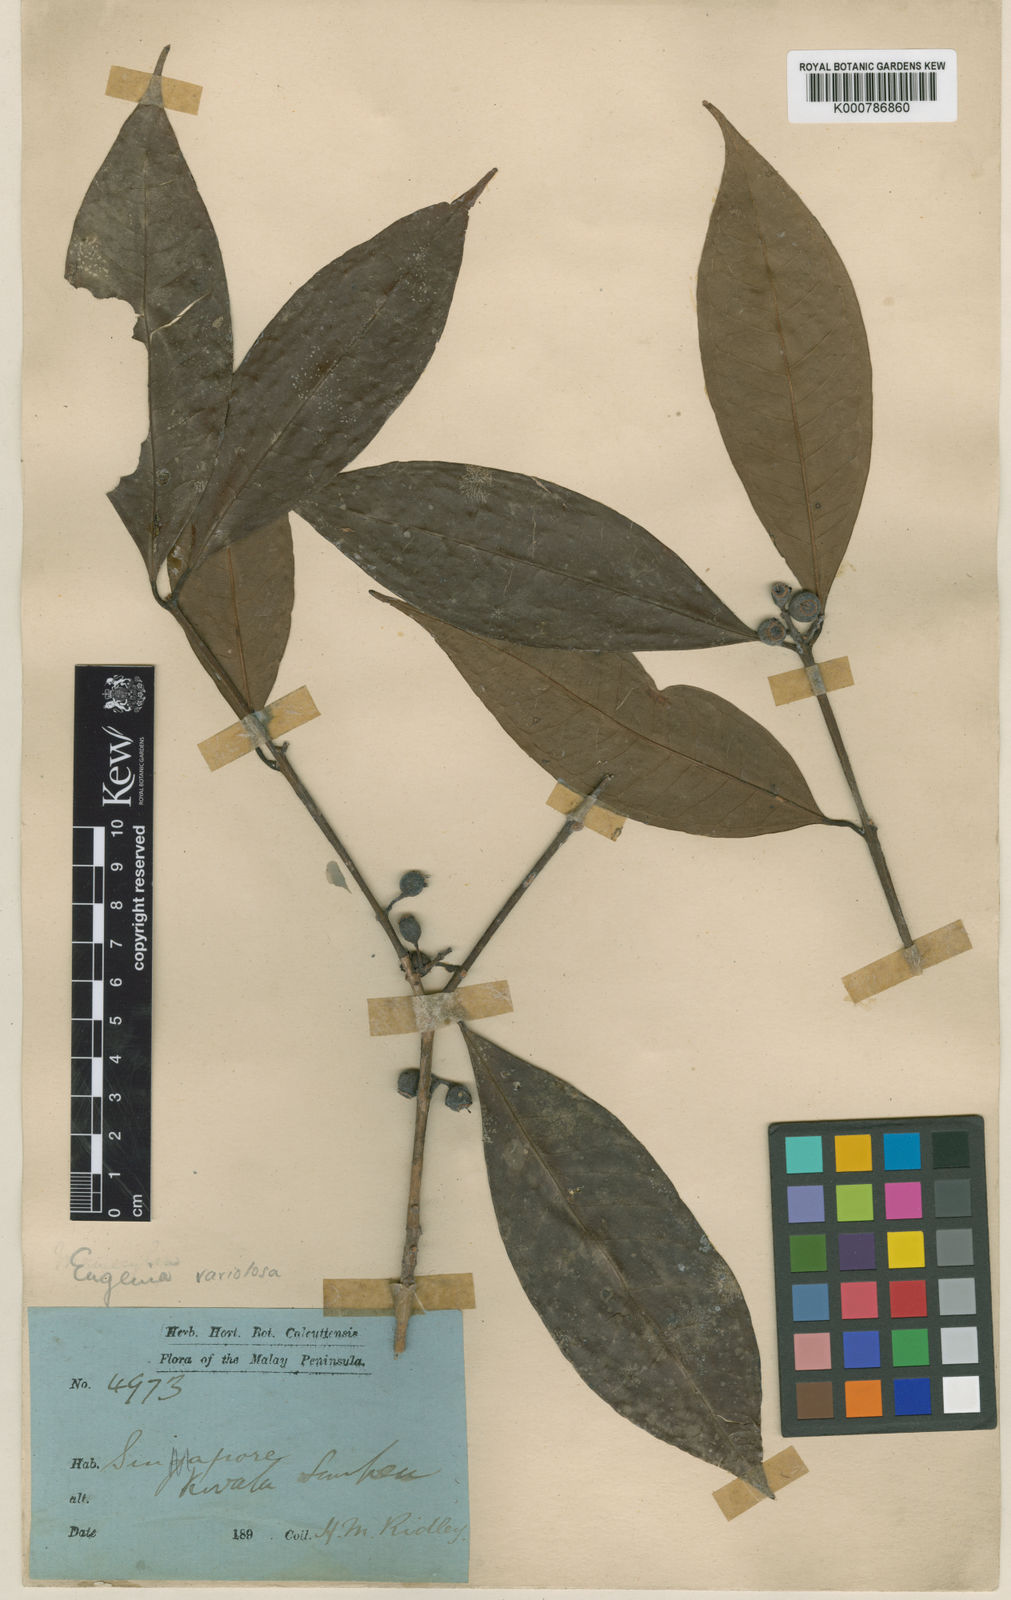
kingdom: Plantae
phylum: Tracheophyta
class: Magnoliopsida
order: Myrtales
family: Myrtaceae
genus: Syzygium
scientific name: Syzygium variolosum
